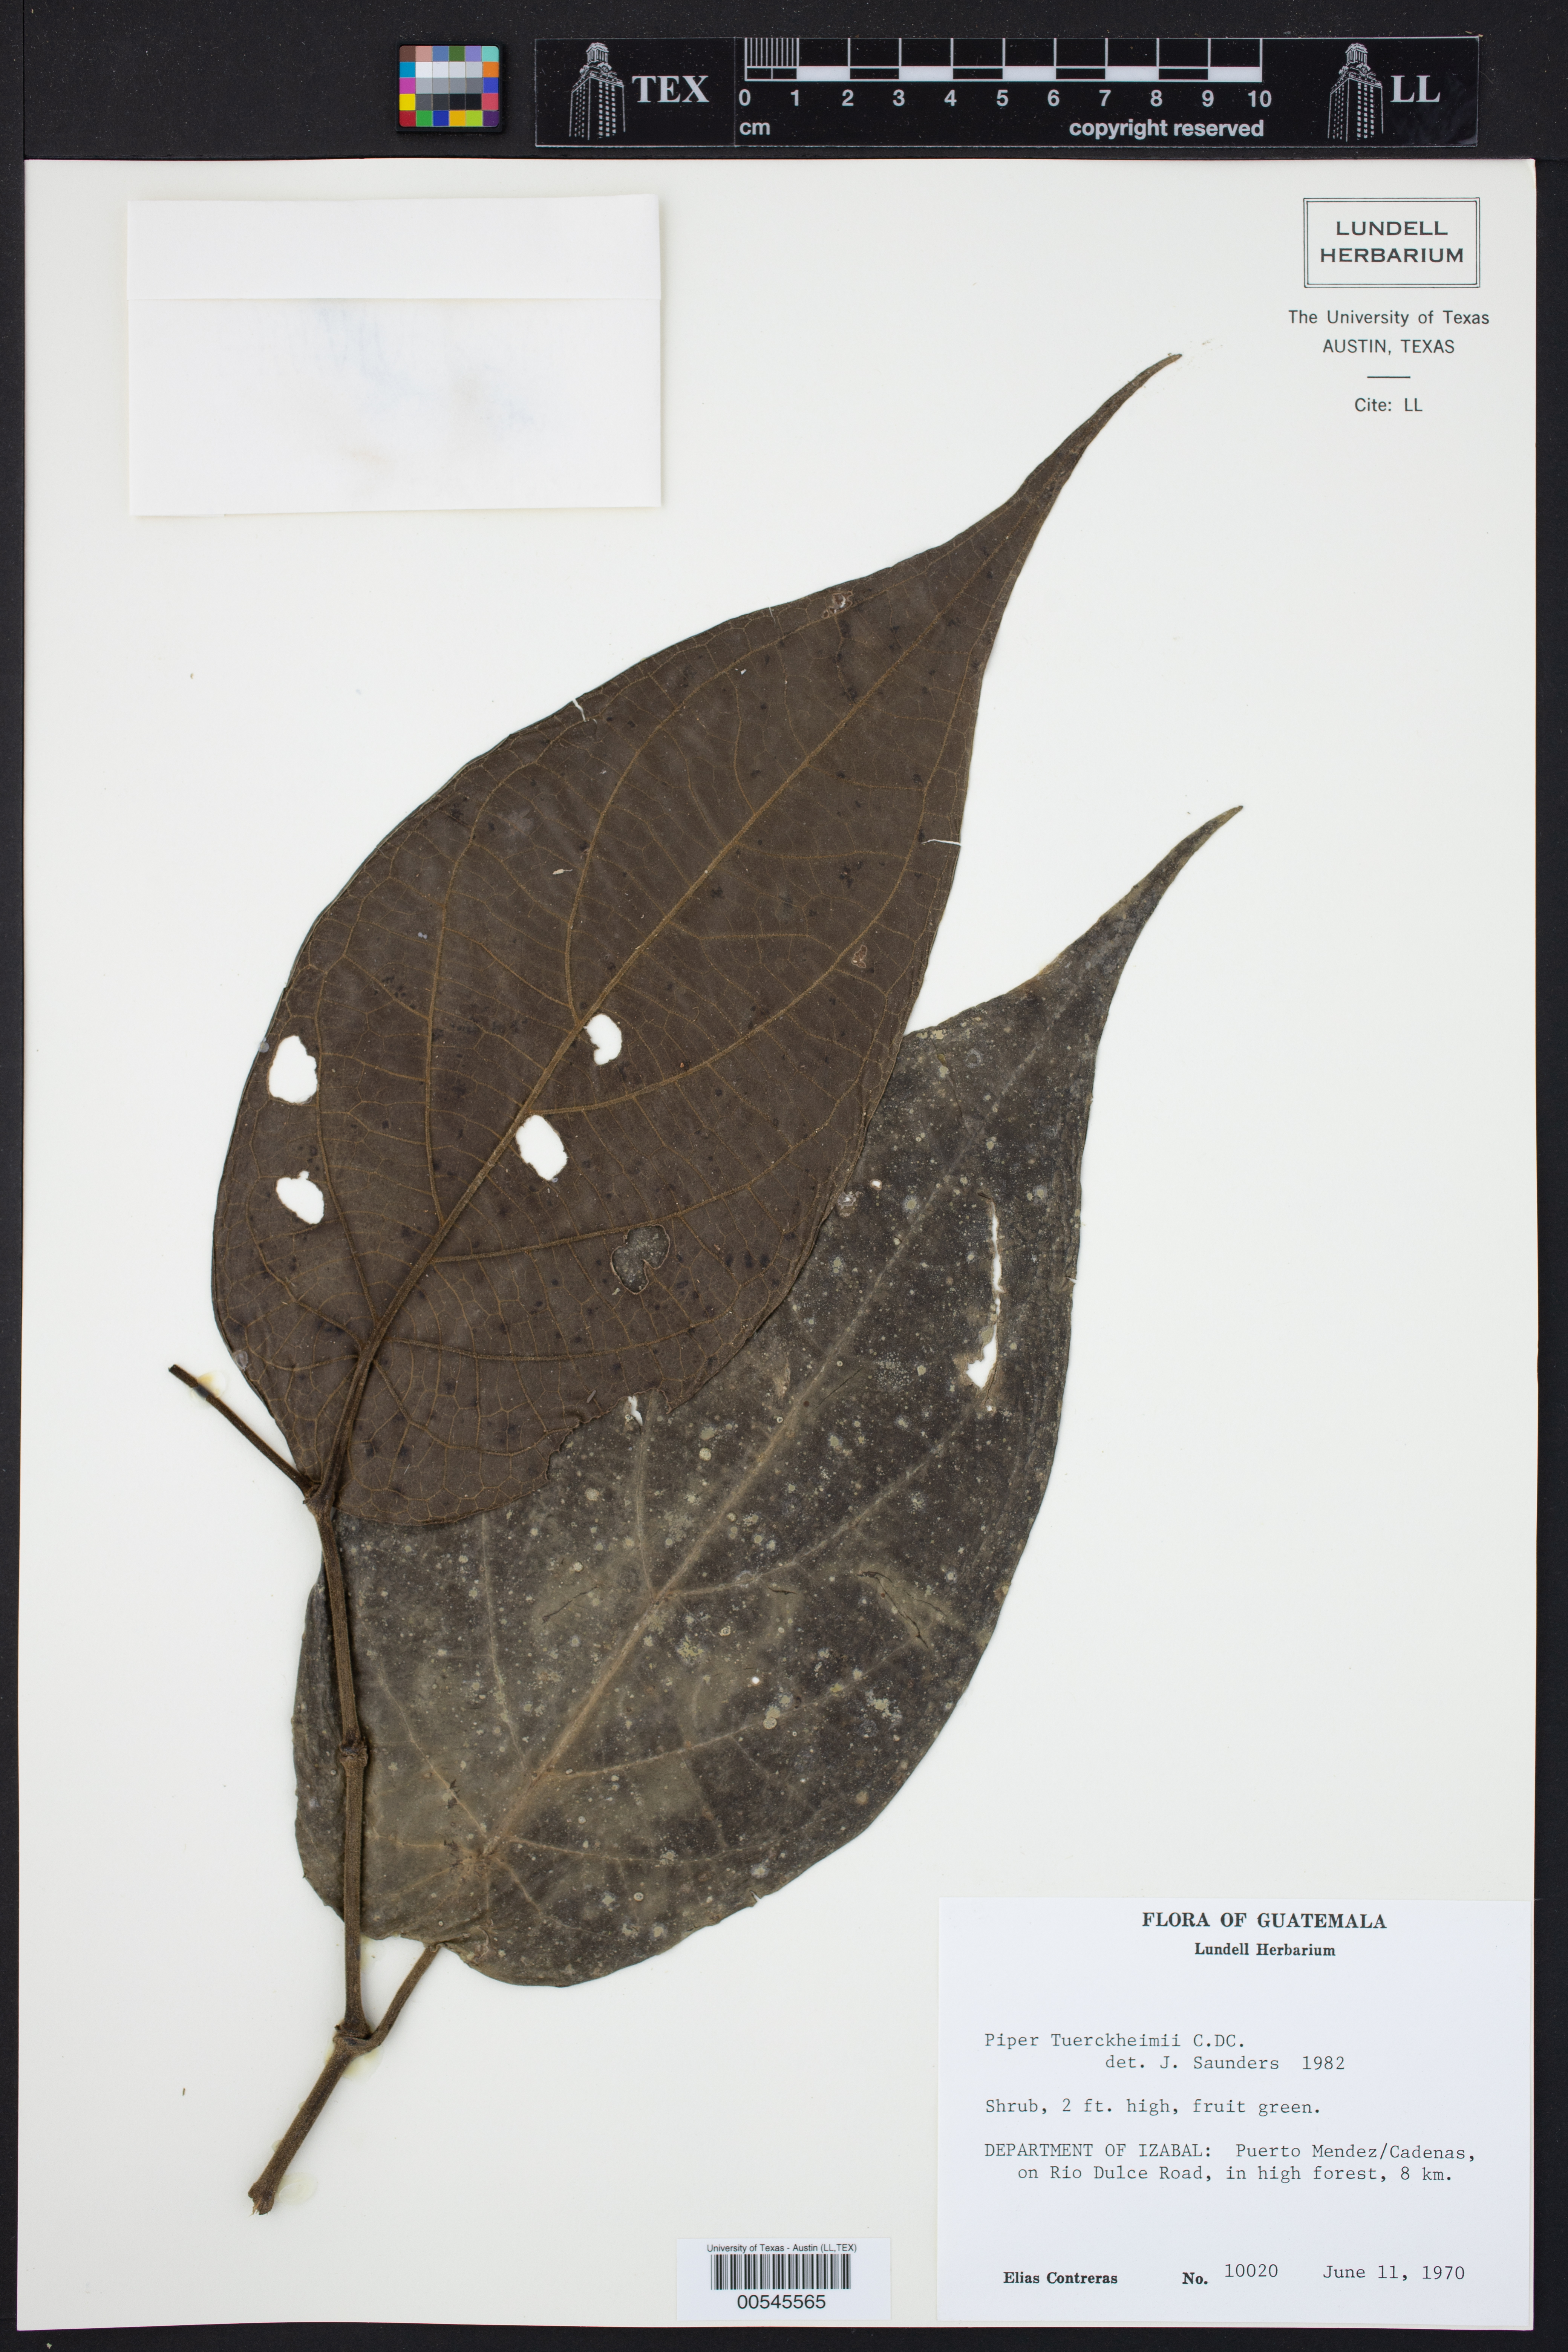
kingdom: Plantae
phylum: Tracheophyta
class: Magnoliopsida
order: Piperales
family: Piperaceae
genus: Piper
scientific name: Piper tuerckheimii
